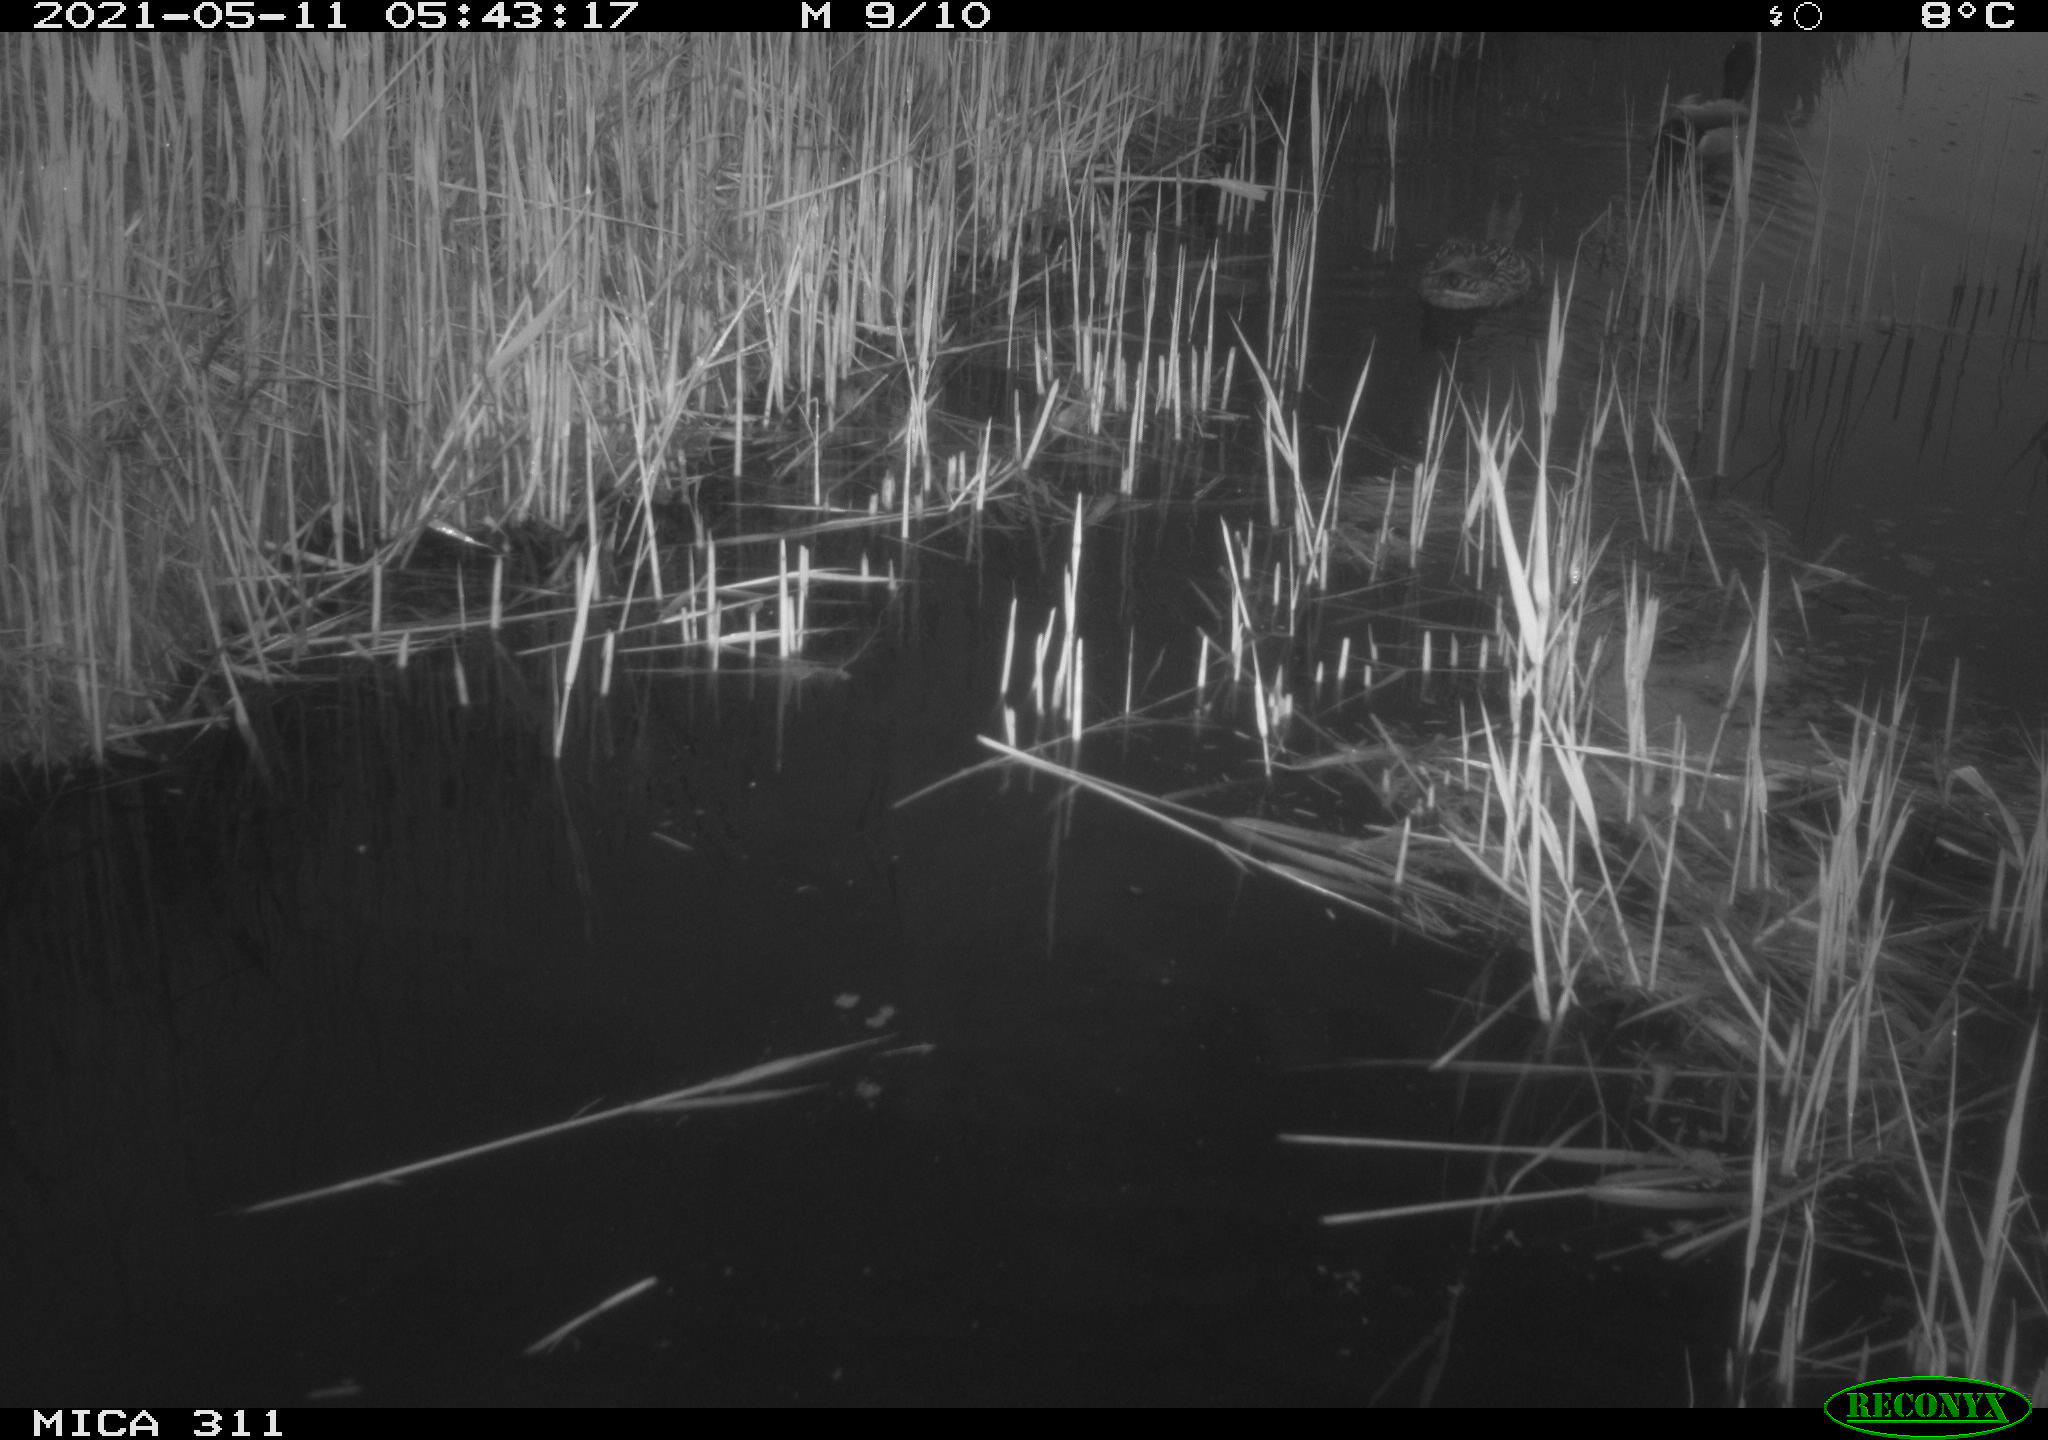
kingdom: Animalia
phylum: Chordata
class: Aves
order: Anseriformes
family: Anatidae
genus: Anas
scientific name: Anas platyrhynchos
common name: Mallard
